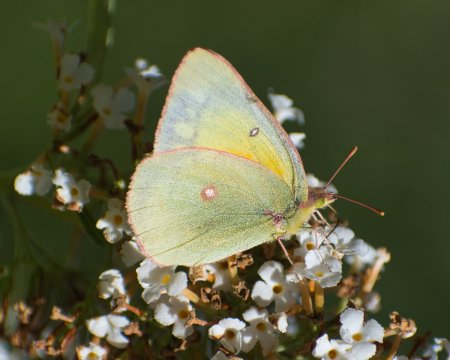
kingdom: Animalia
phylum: Arthropoda
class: Insecta
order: Lepidoptera
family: Pieridae
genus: Colias
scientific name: Colias eurytheme
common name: Orange Sulphur
